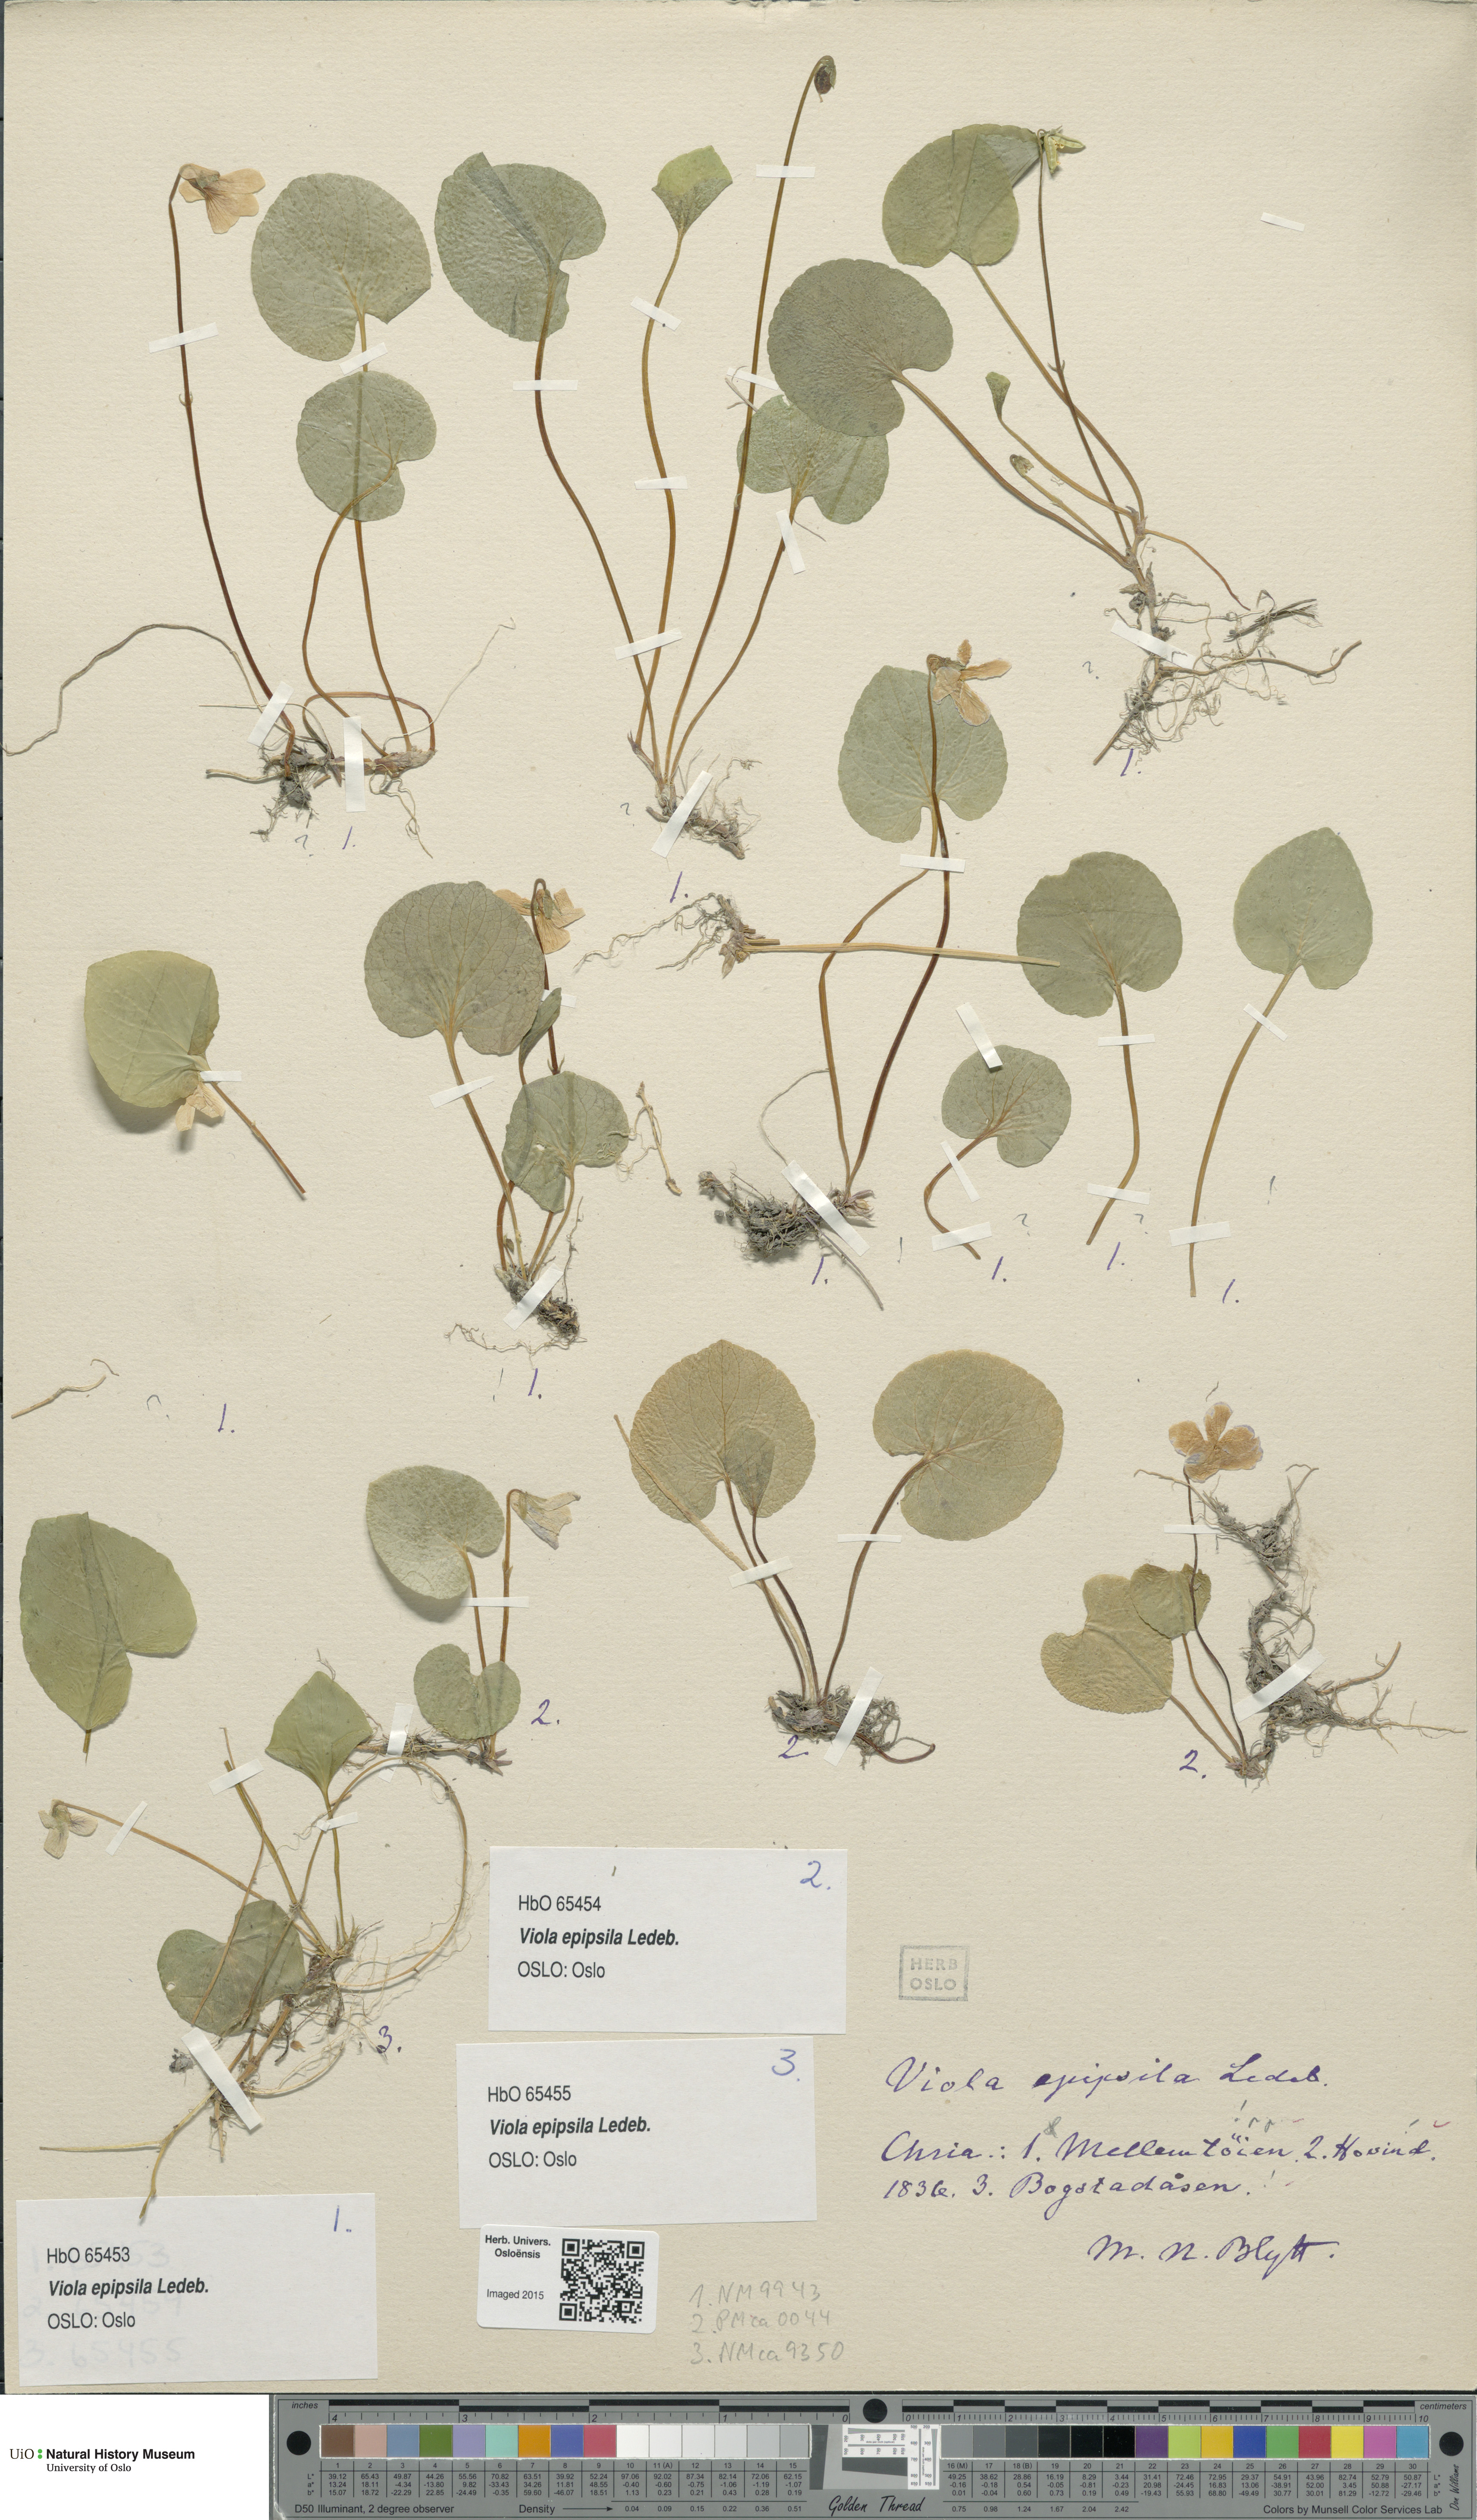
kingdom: Plantae
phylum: Tracheophyta
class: Magnoliopsida
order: Malpighiales
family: Violaceae
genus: Viola
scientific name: Viola epipsila
